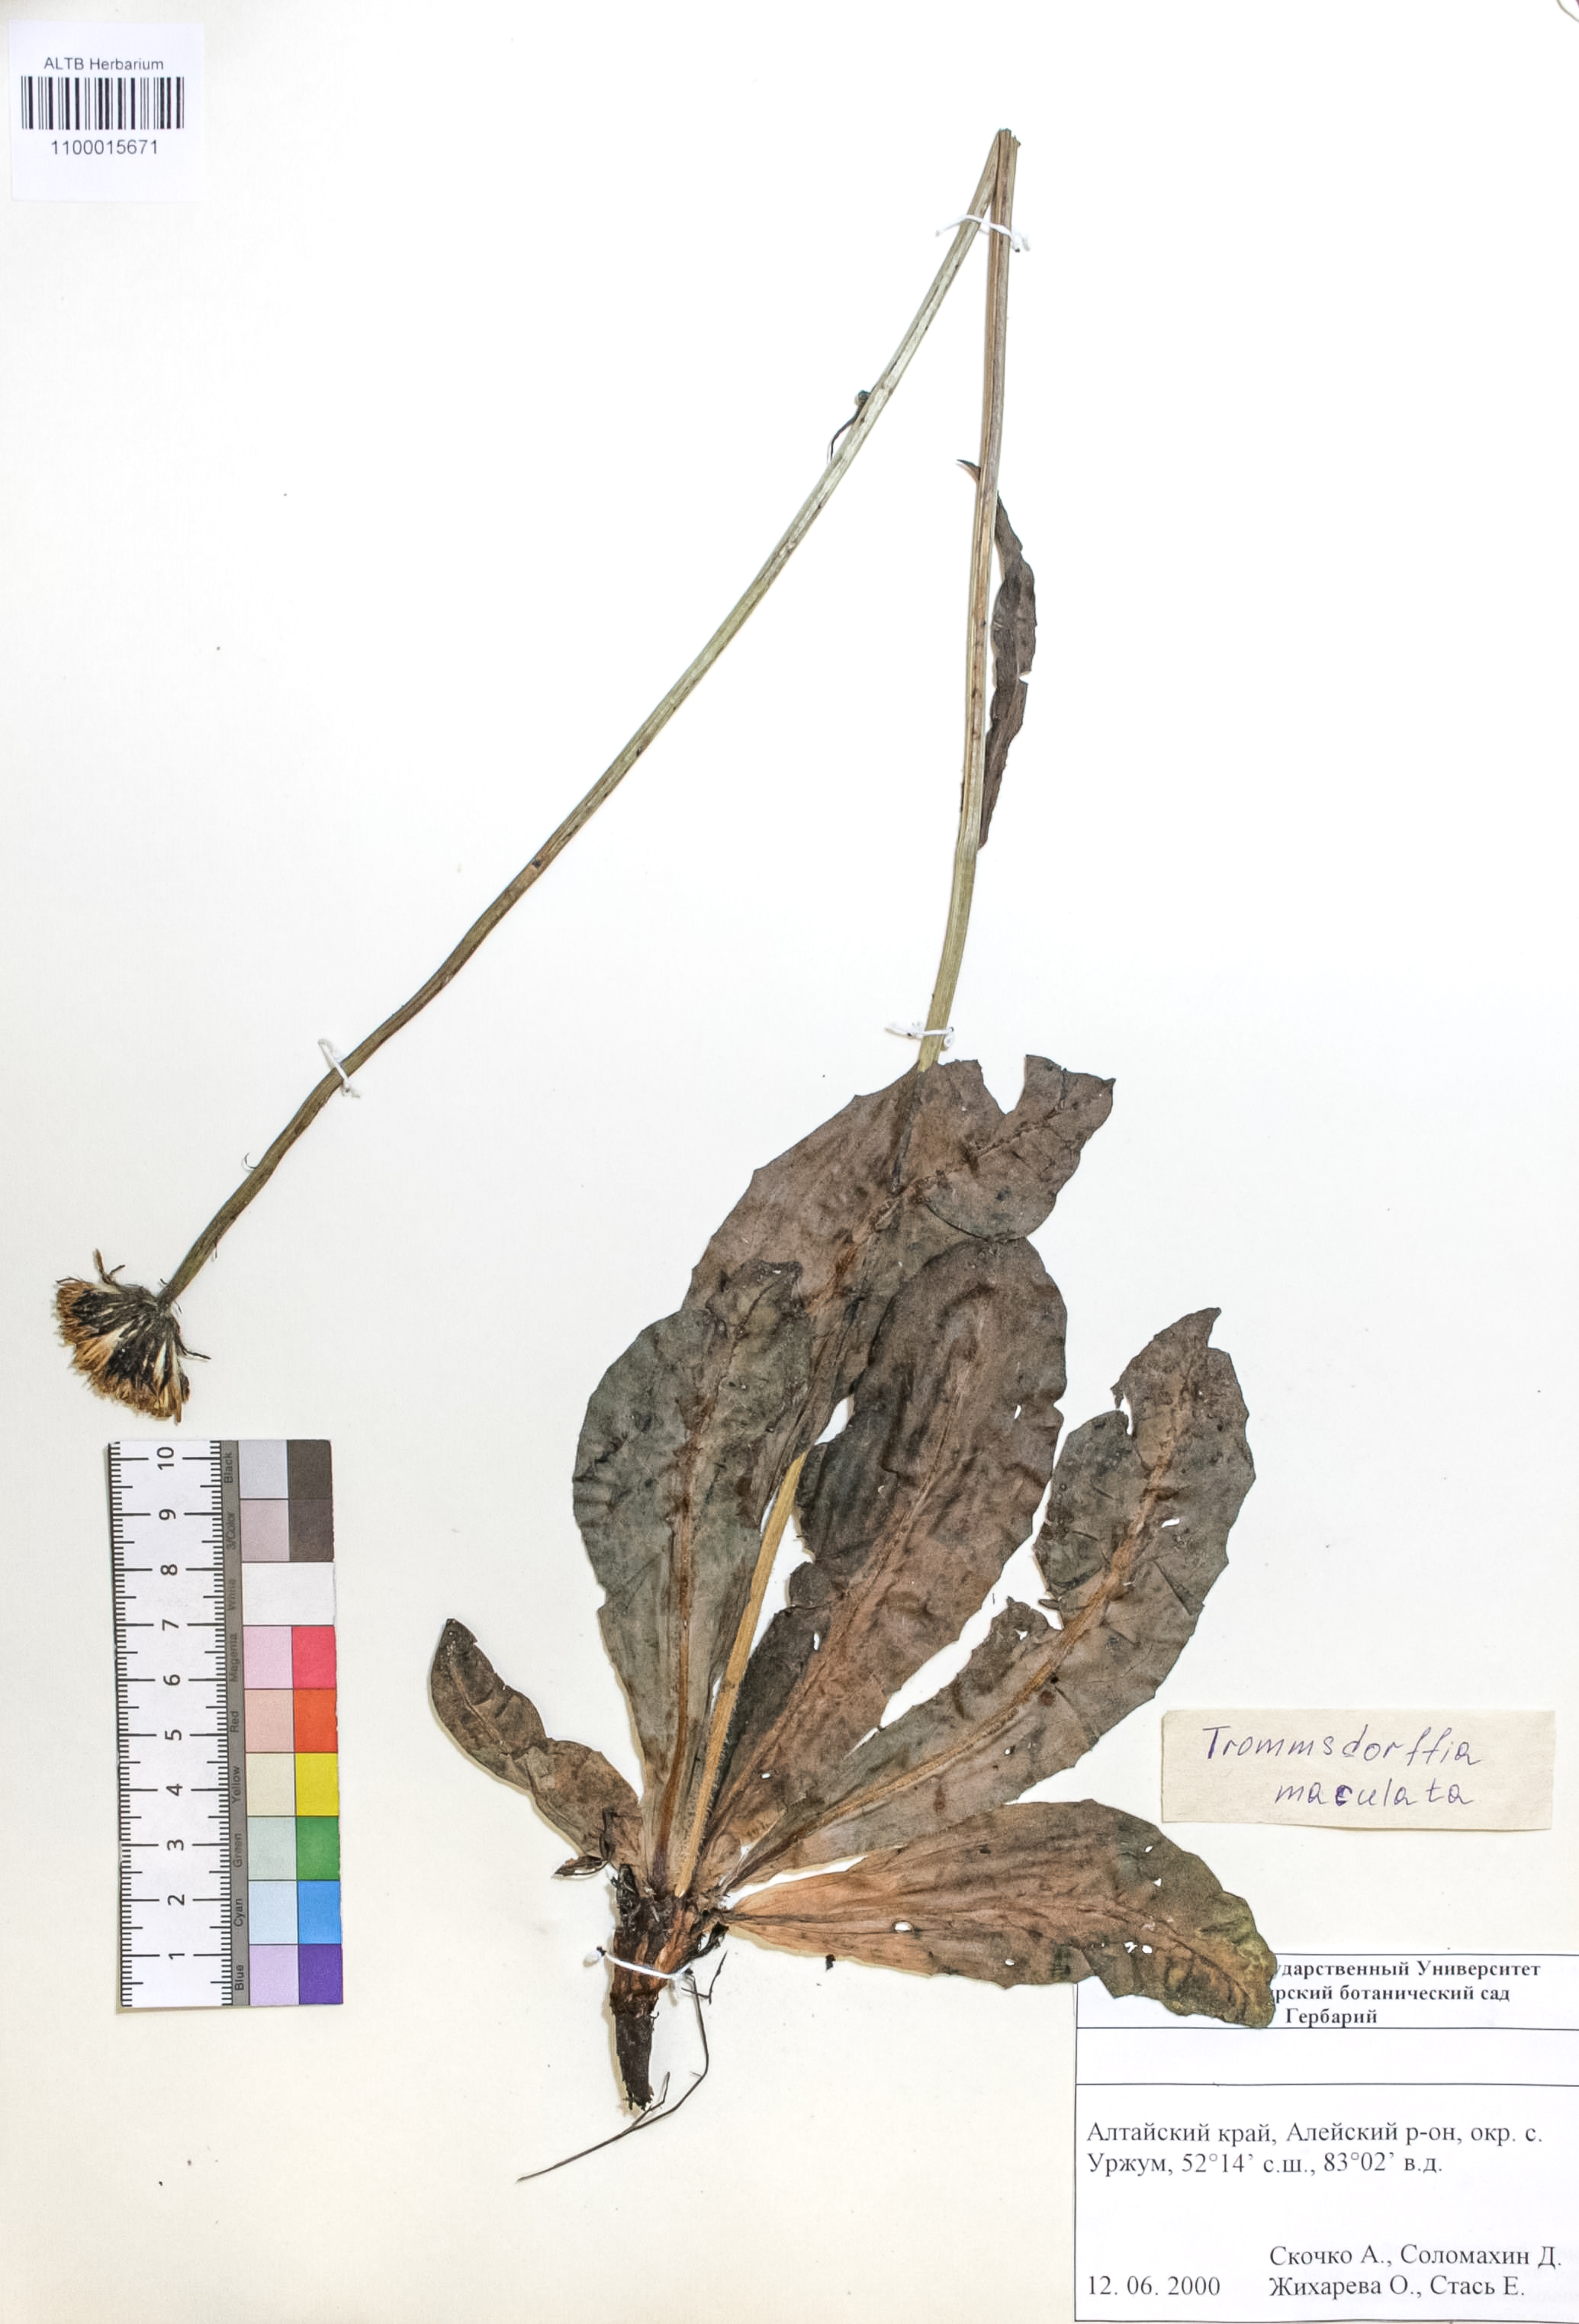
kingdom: Plantae
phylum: Tracheophyta
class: Magnoliopsida
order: Asterales
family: Asteraceae
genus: Trommsdorffia
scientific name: Trommsdorffia maculata
